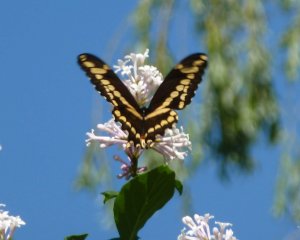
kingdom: Animalia
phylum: Arthropoda
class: Insecta
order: Lepidoptera
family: Papilionidae
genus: Papilio
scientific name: Papilio cresphontes
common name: Eastern Giant Swallowtail
